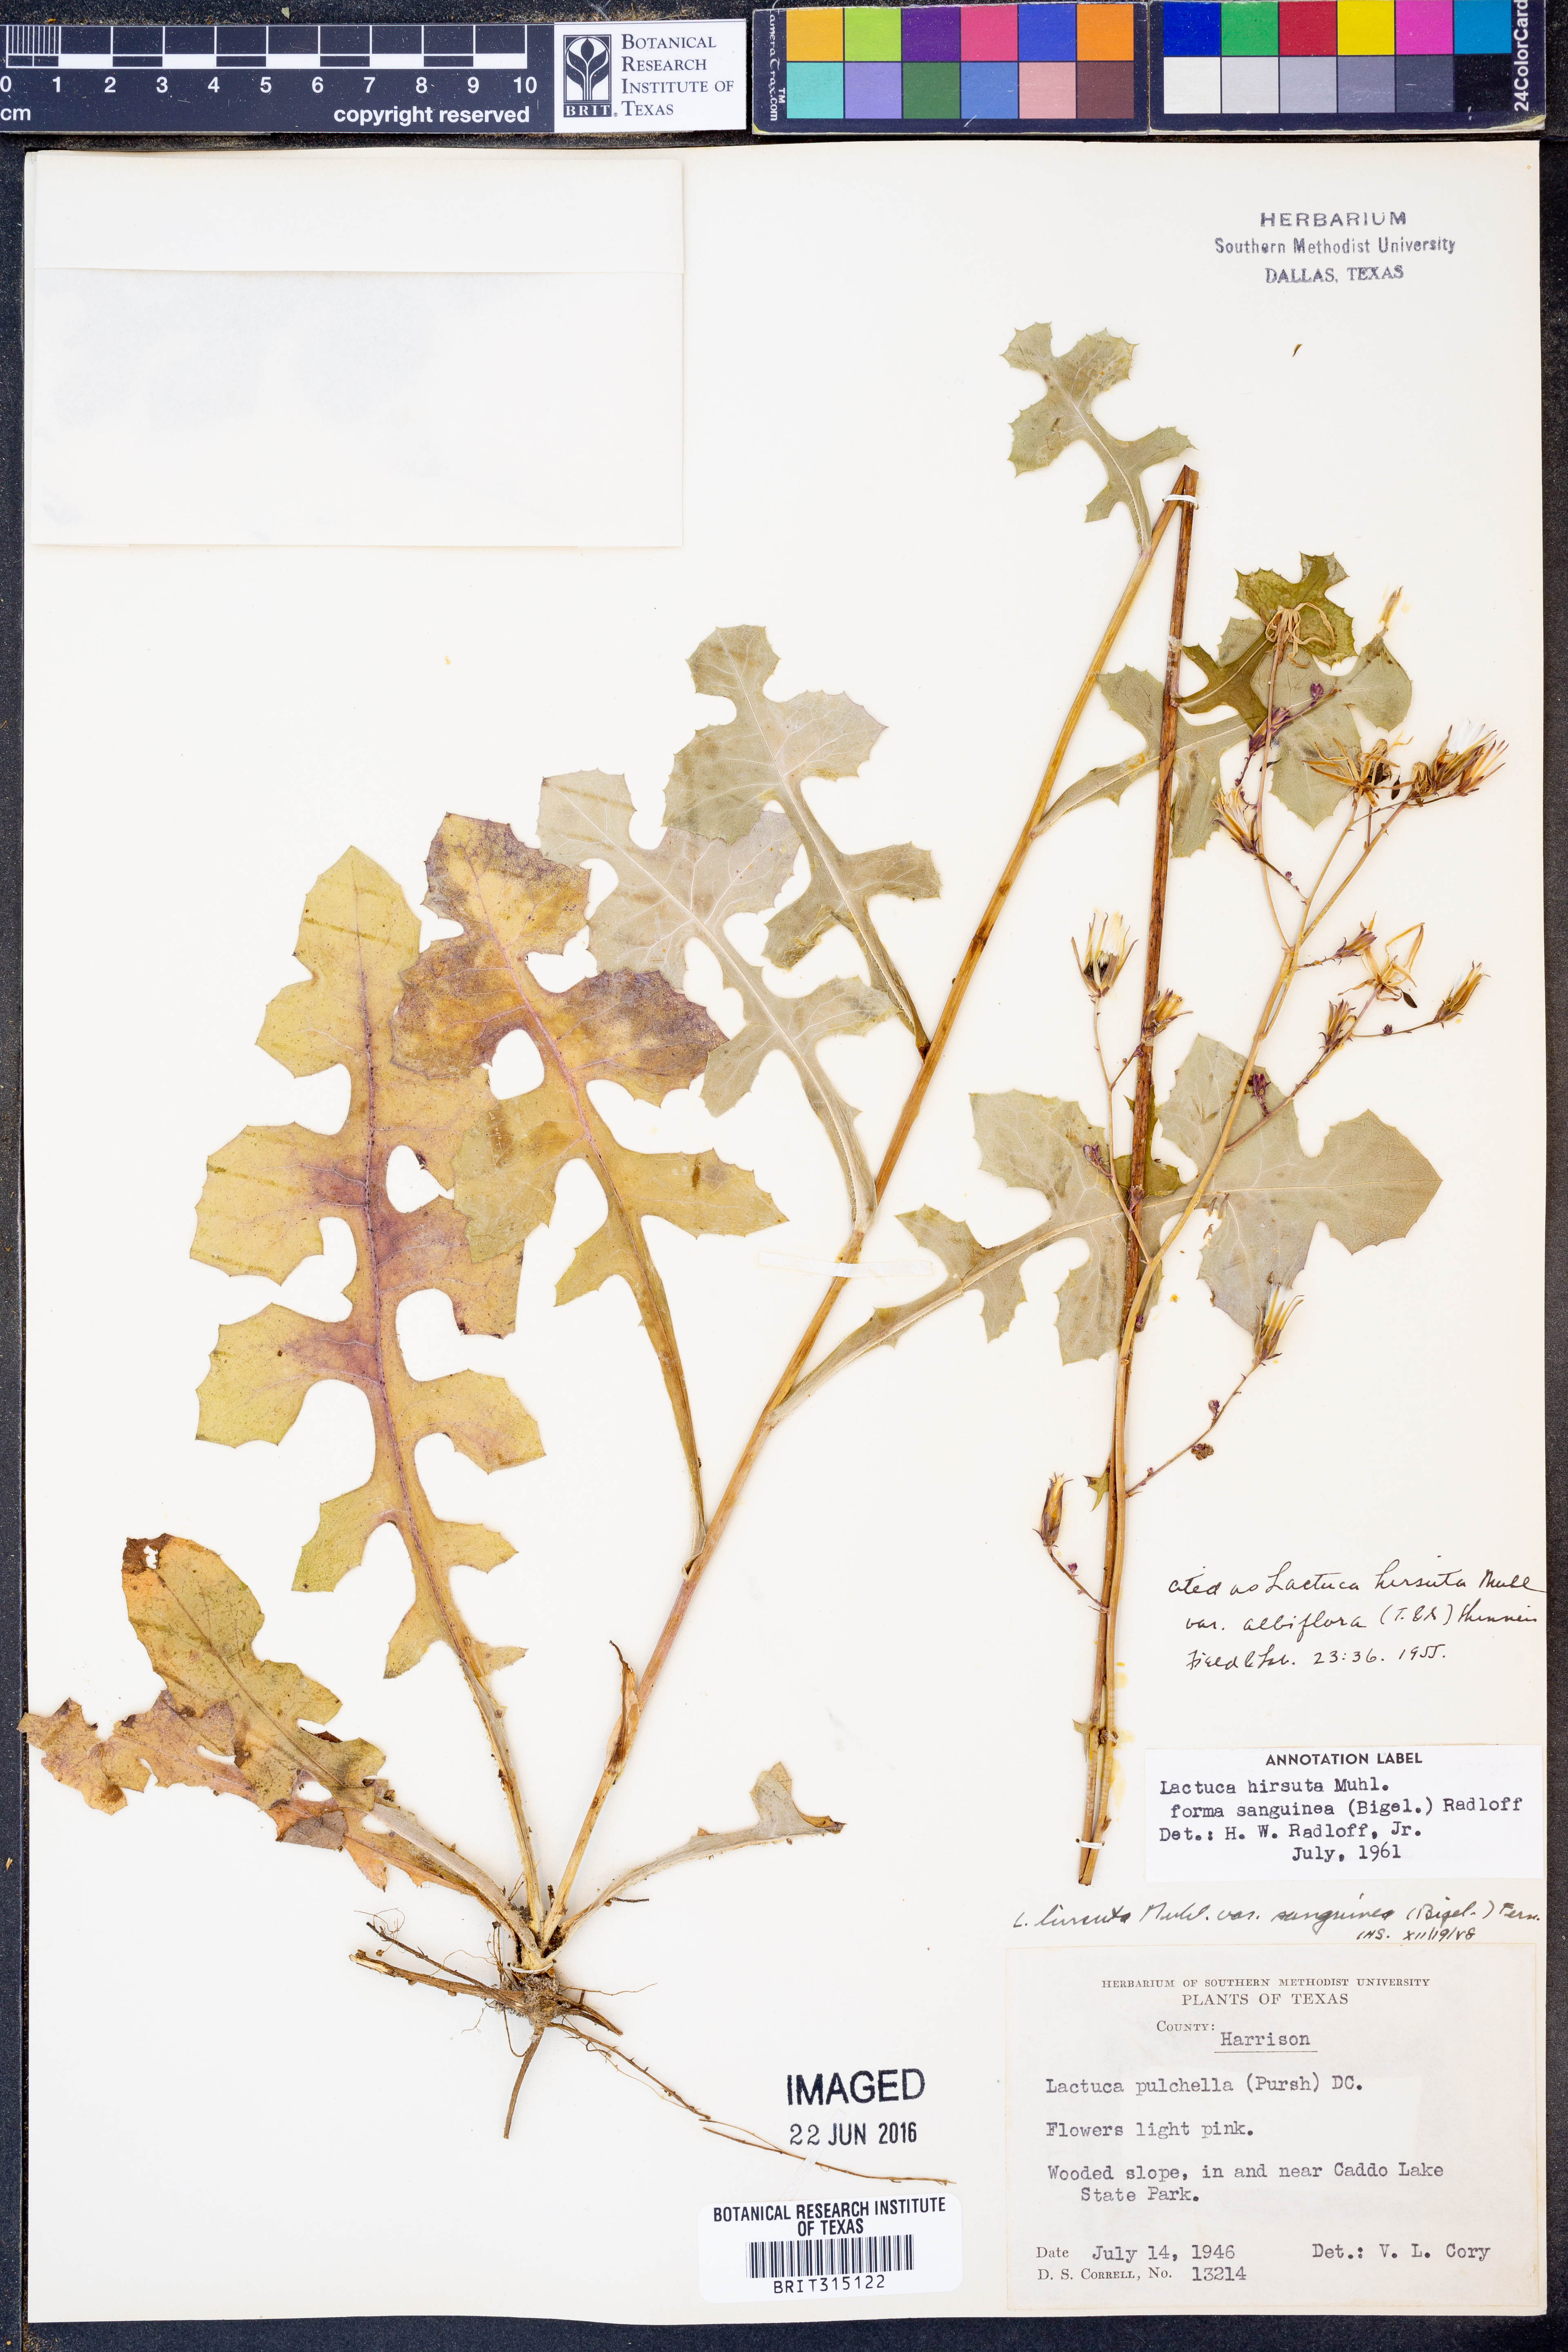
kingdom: Plantae
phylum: Tracheophyta
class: Magnoliopsida
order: Asterales
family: Asteraceae
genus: Lactuca
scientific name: Lactuca hirsuta
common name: Hairy lettuce
